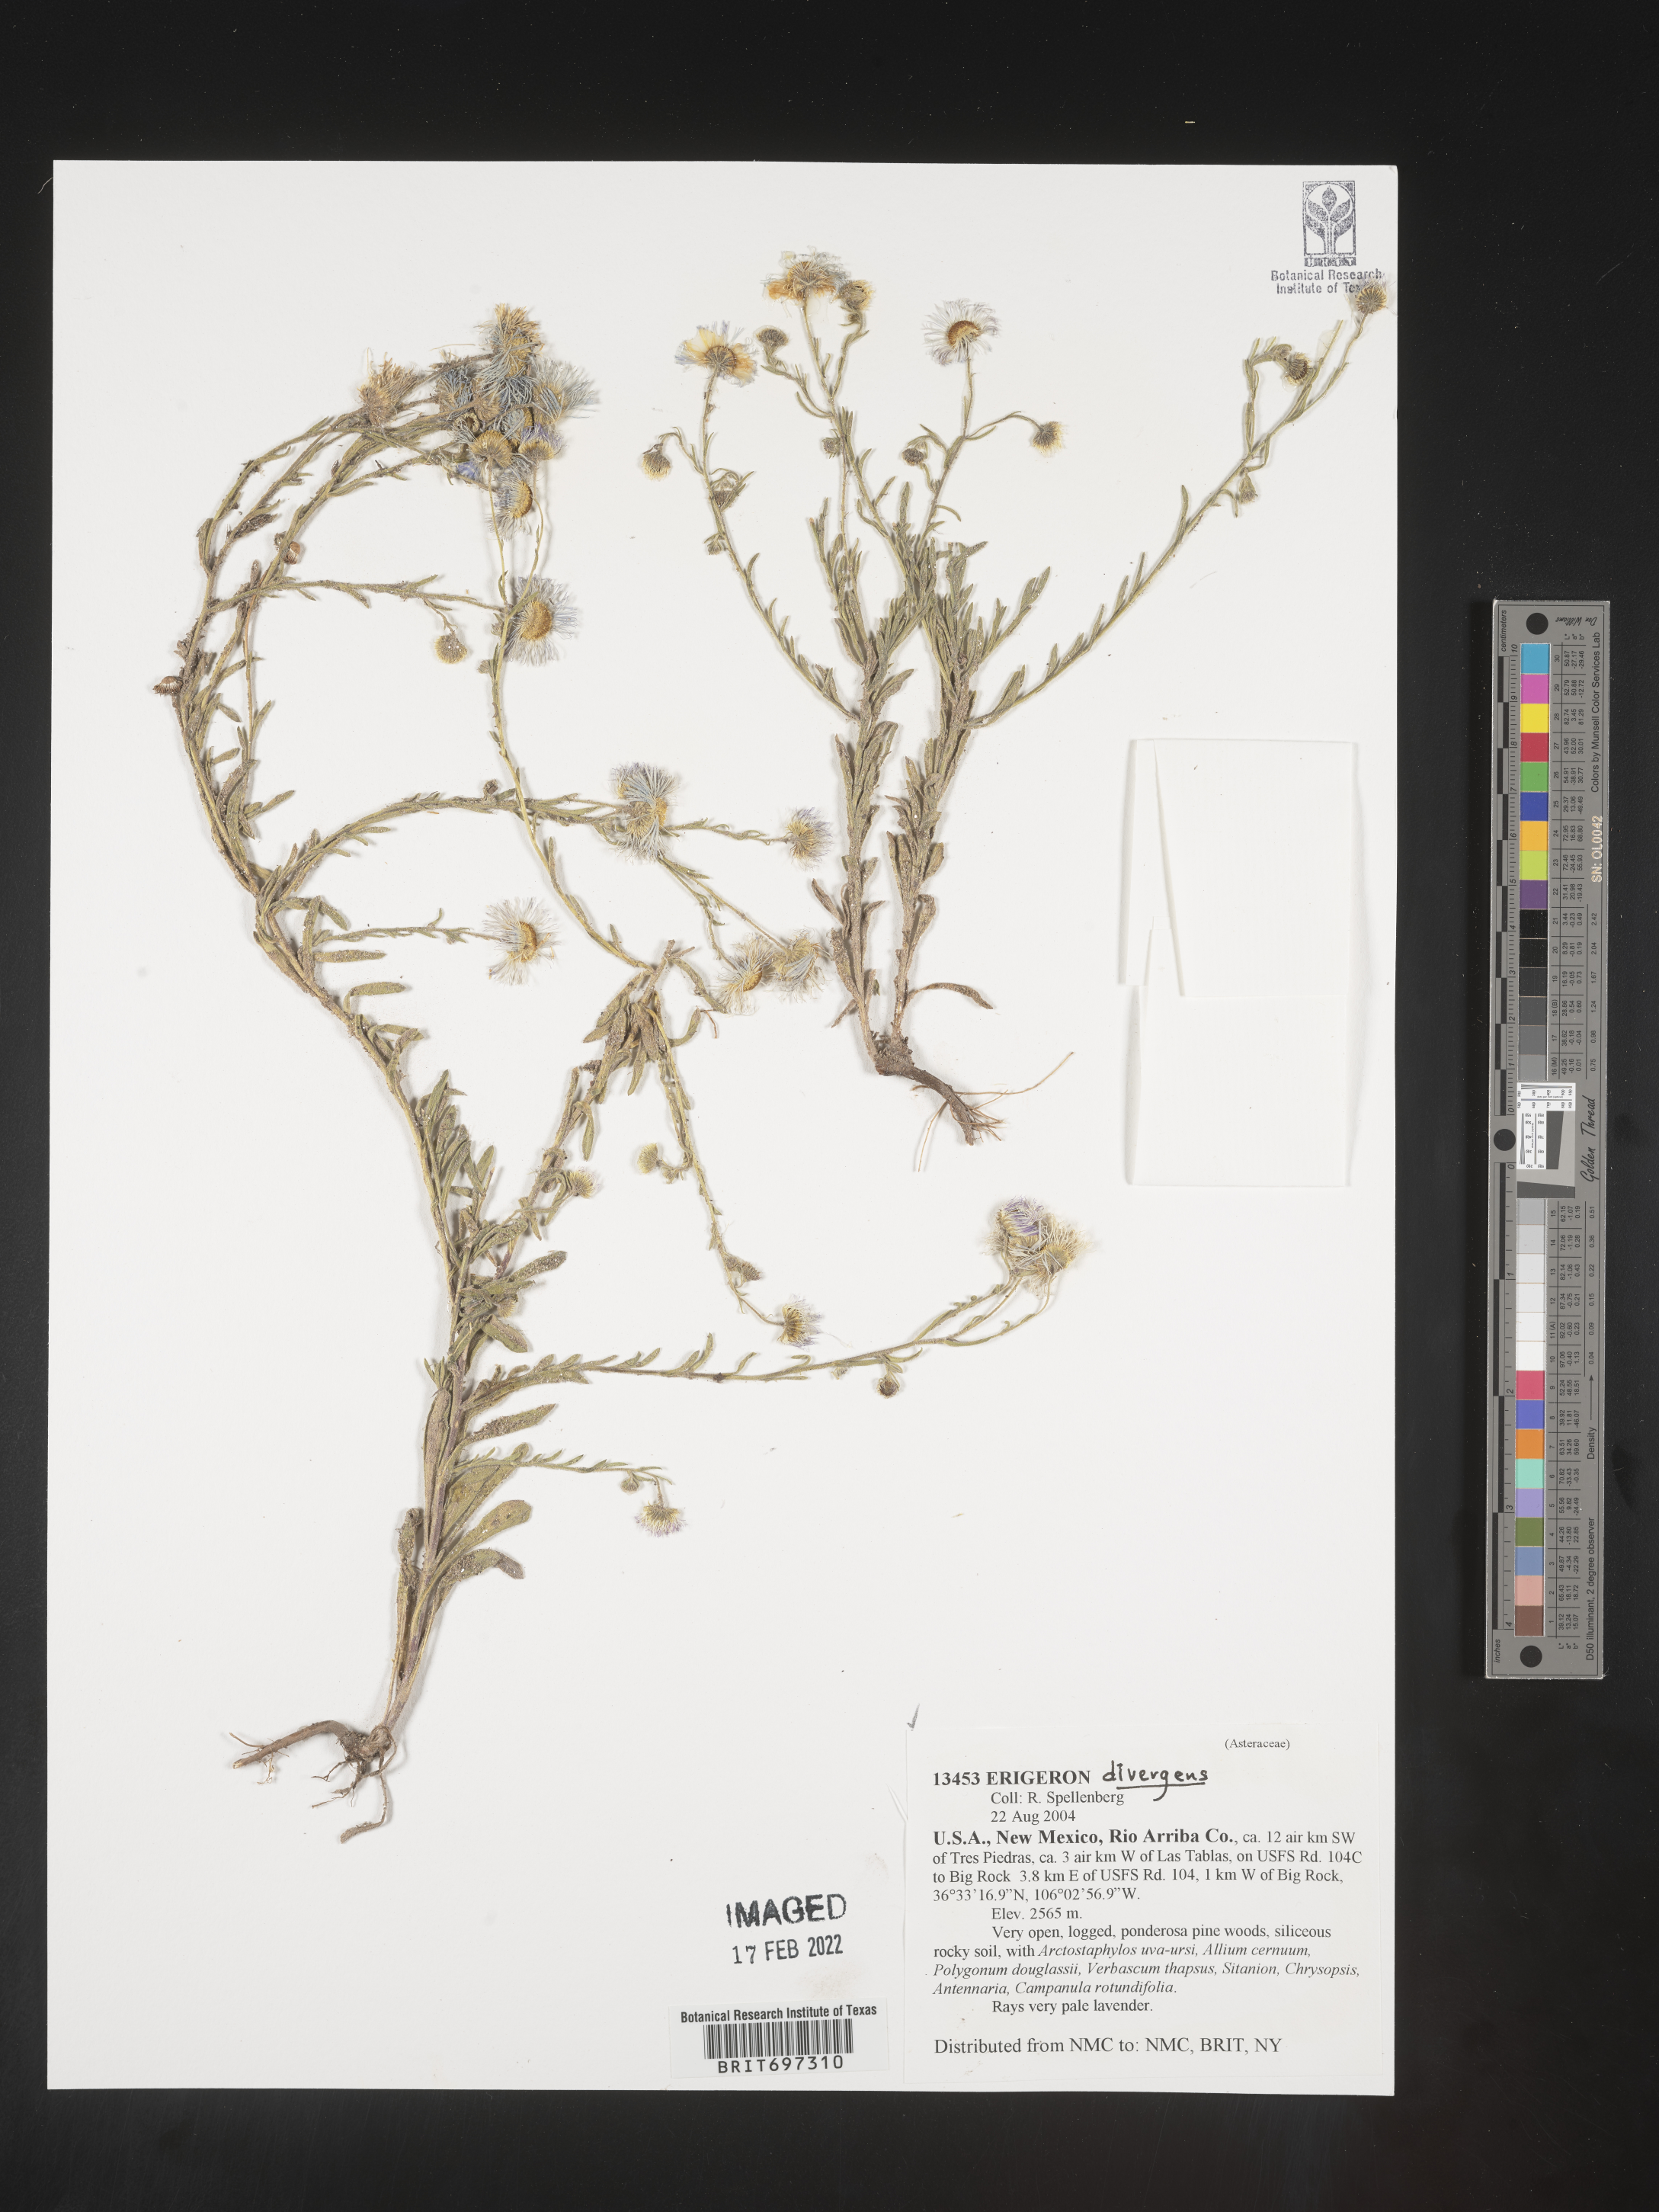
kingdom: Plantae
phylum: Tracheophyta
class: Magnoliopsida
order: Asterales
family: Asteraceae
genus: Erigeron
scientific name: Erigeron divergens
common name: Diffuse fleabane
